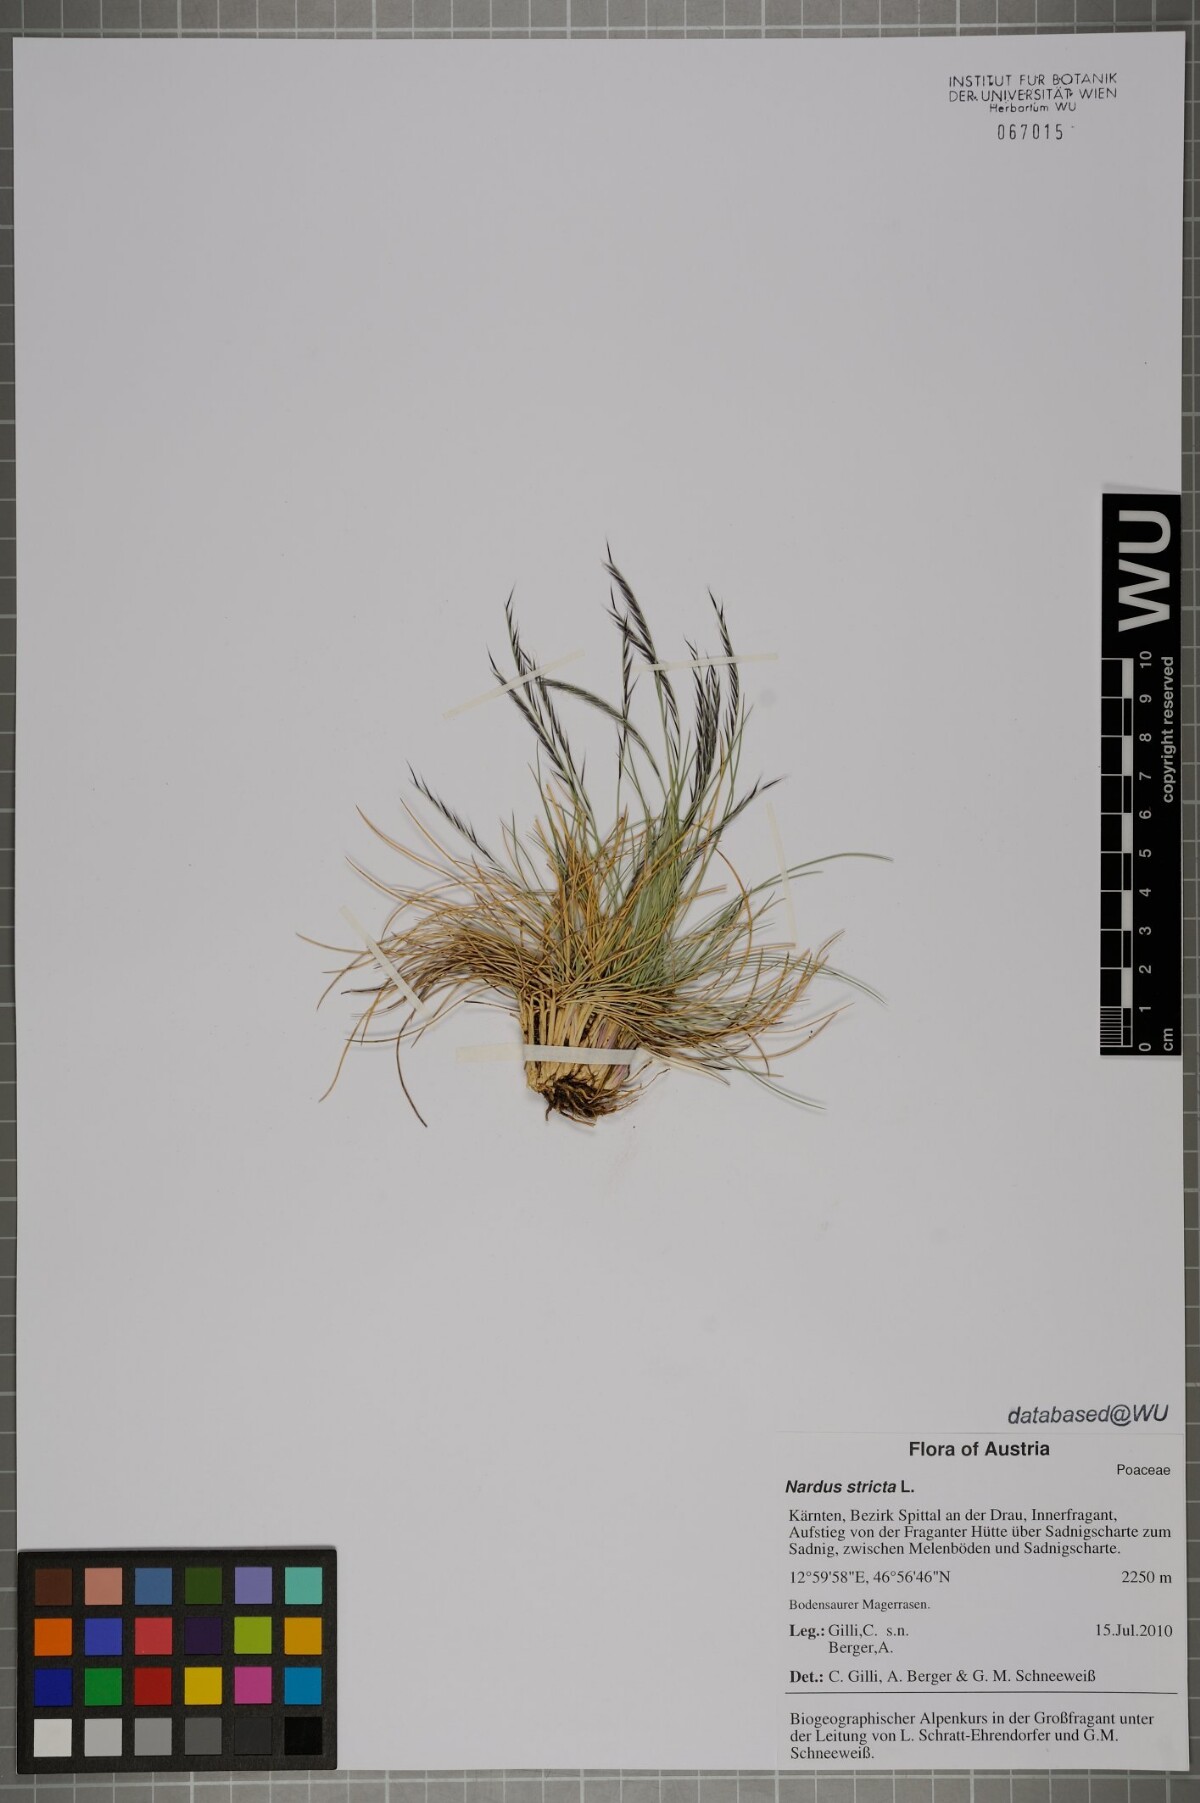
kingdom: Plantae
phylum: Tracheophyta
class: Liliopsida
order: Poales
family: Poaceae
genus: Nardus
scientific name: Nardus stricta
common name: Mat-grass
